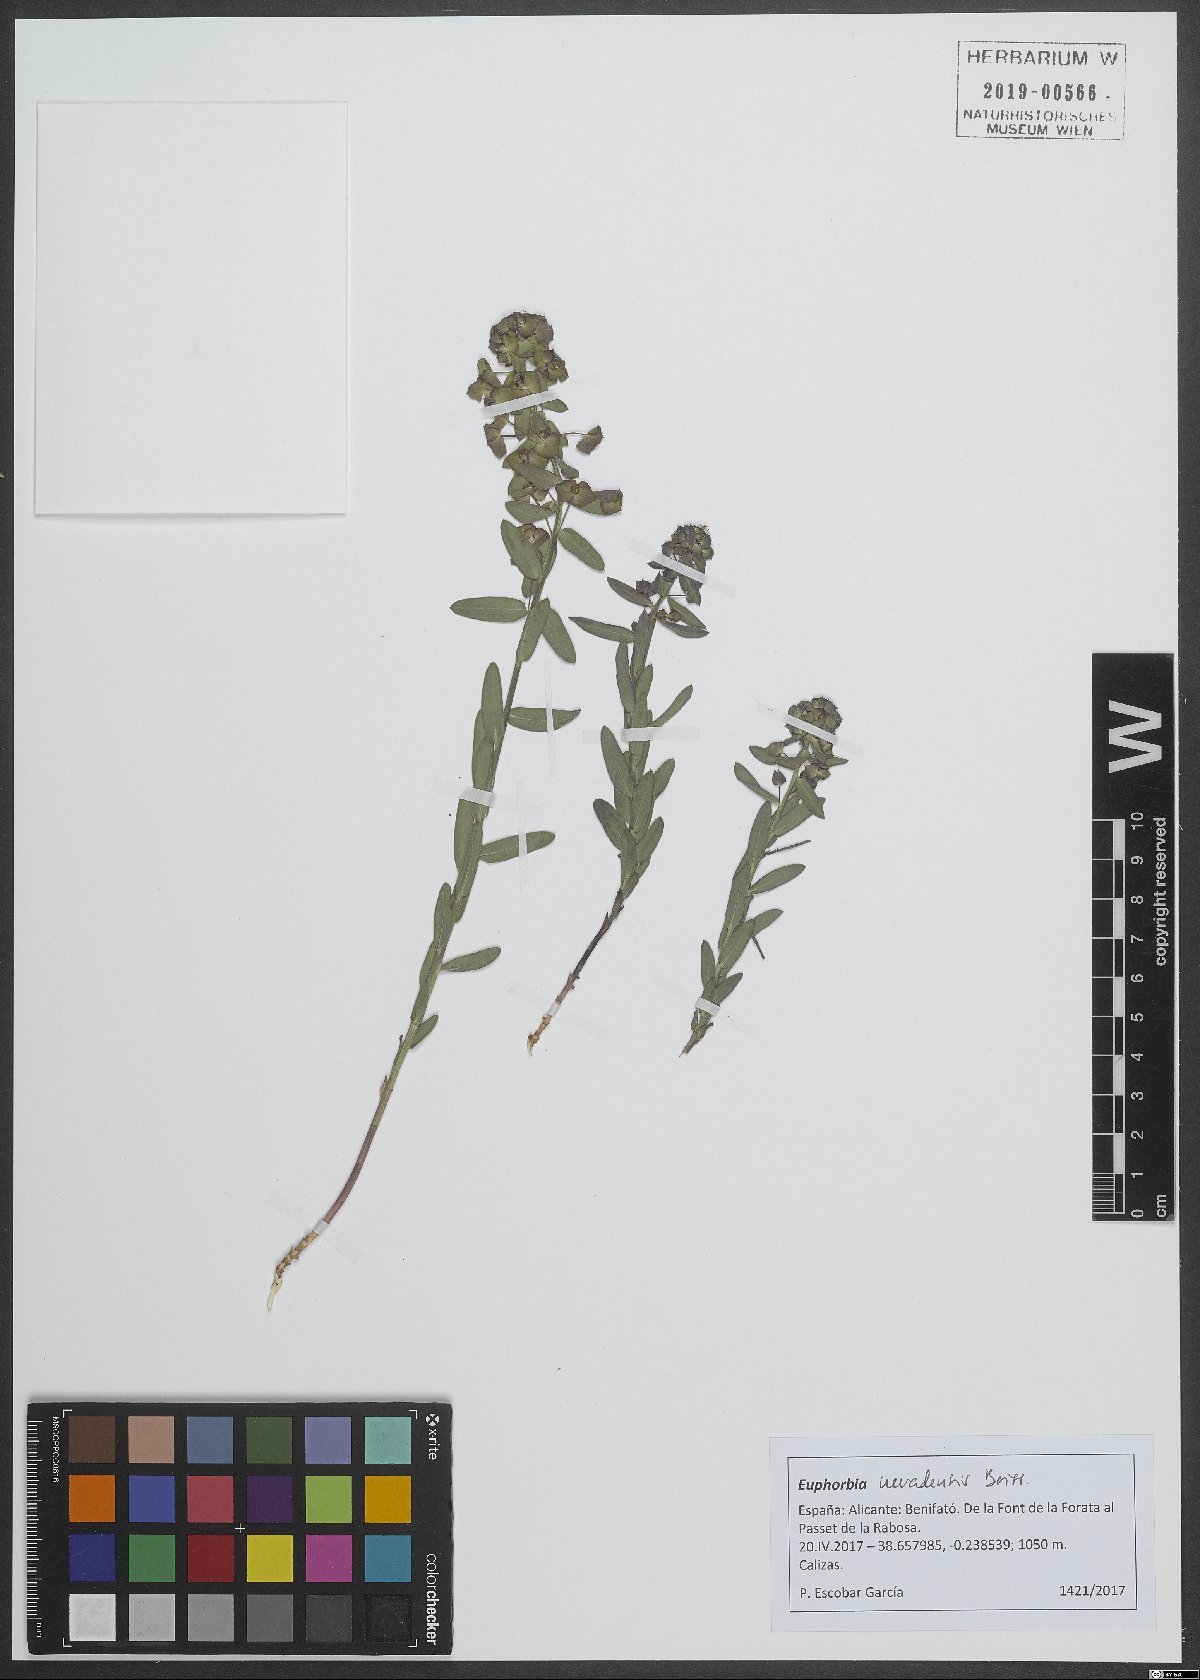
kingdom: Plantae
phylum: Tracheophyta
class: Magnoliopsida
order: Malpighiales
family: Euphorbiaceae
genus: Euphorbia
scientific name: Euphorbia nevadensis
